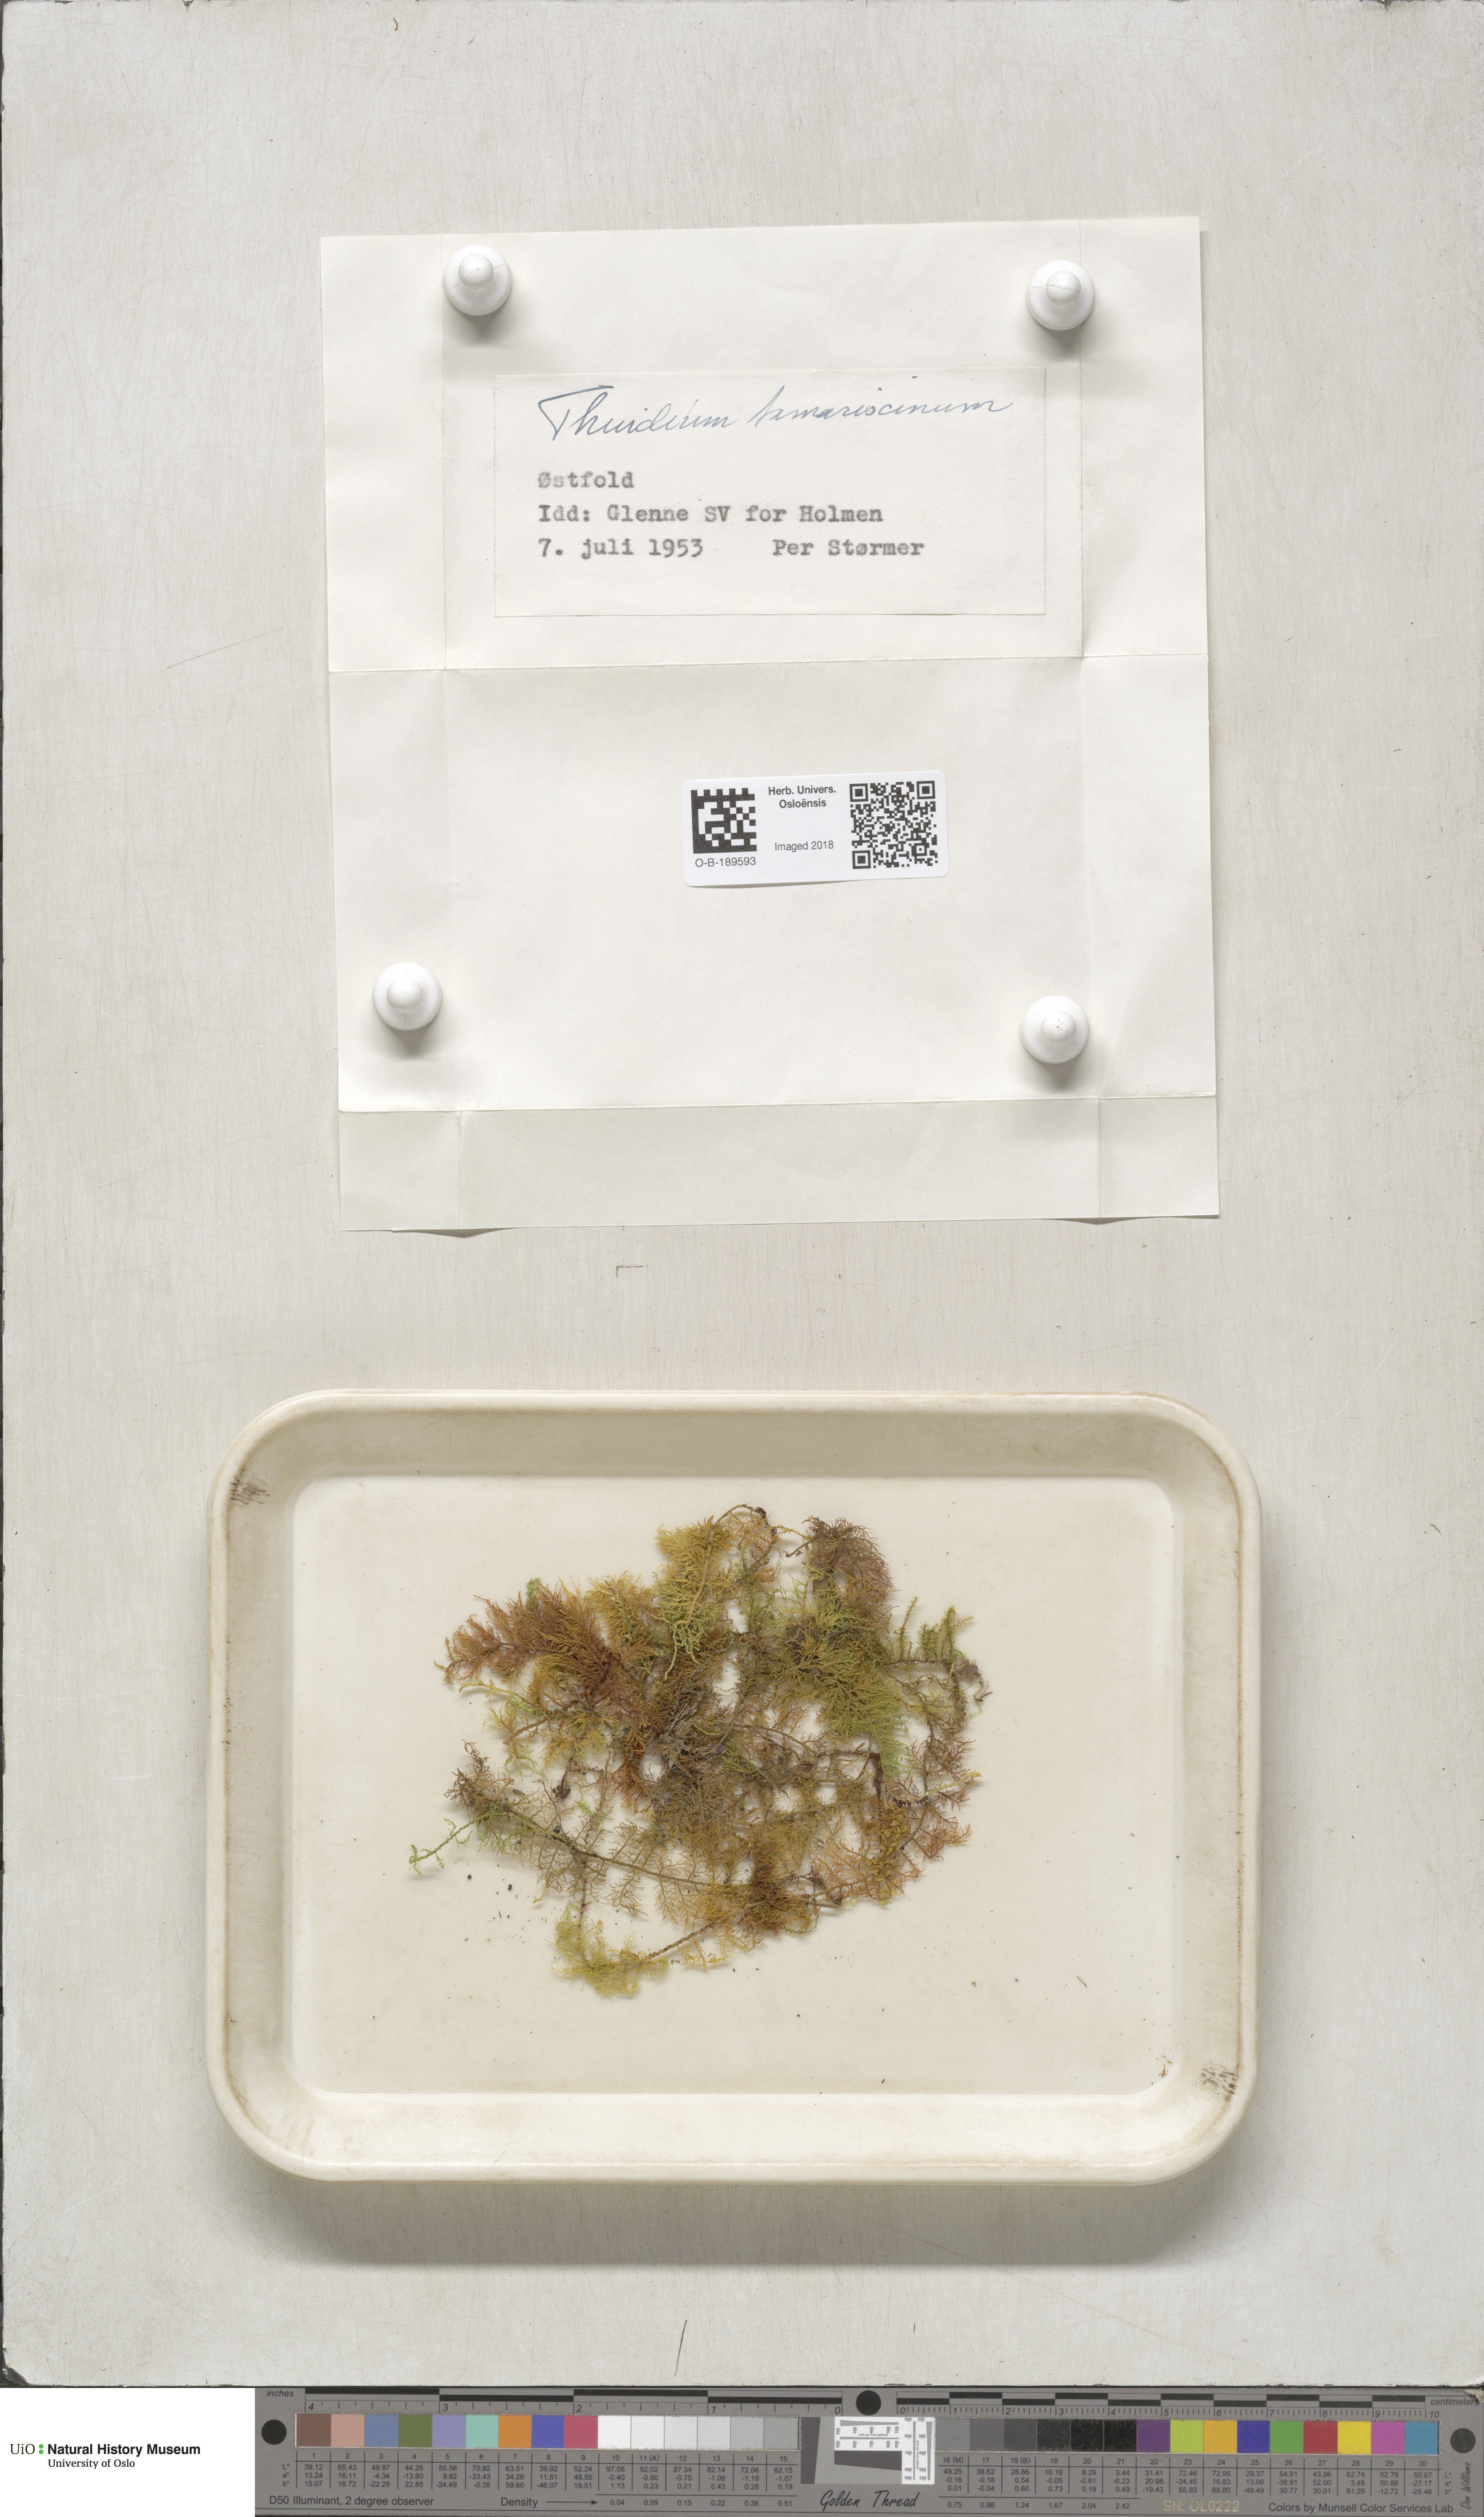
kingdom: Plantae
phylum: Bryophyta
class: Bryopsida
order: Hypnales
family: Thuidiaceae
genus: Thuidium
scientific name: Thuidium tamariscinum
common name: Common tamarisk-moss
